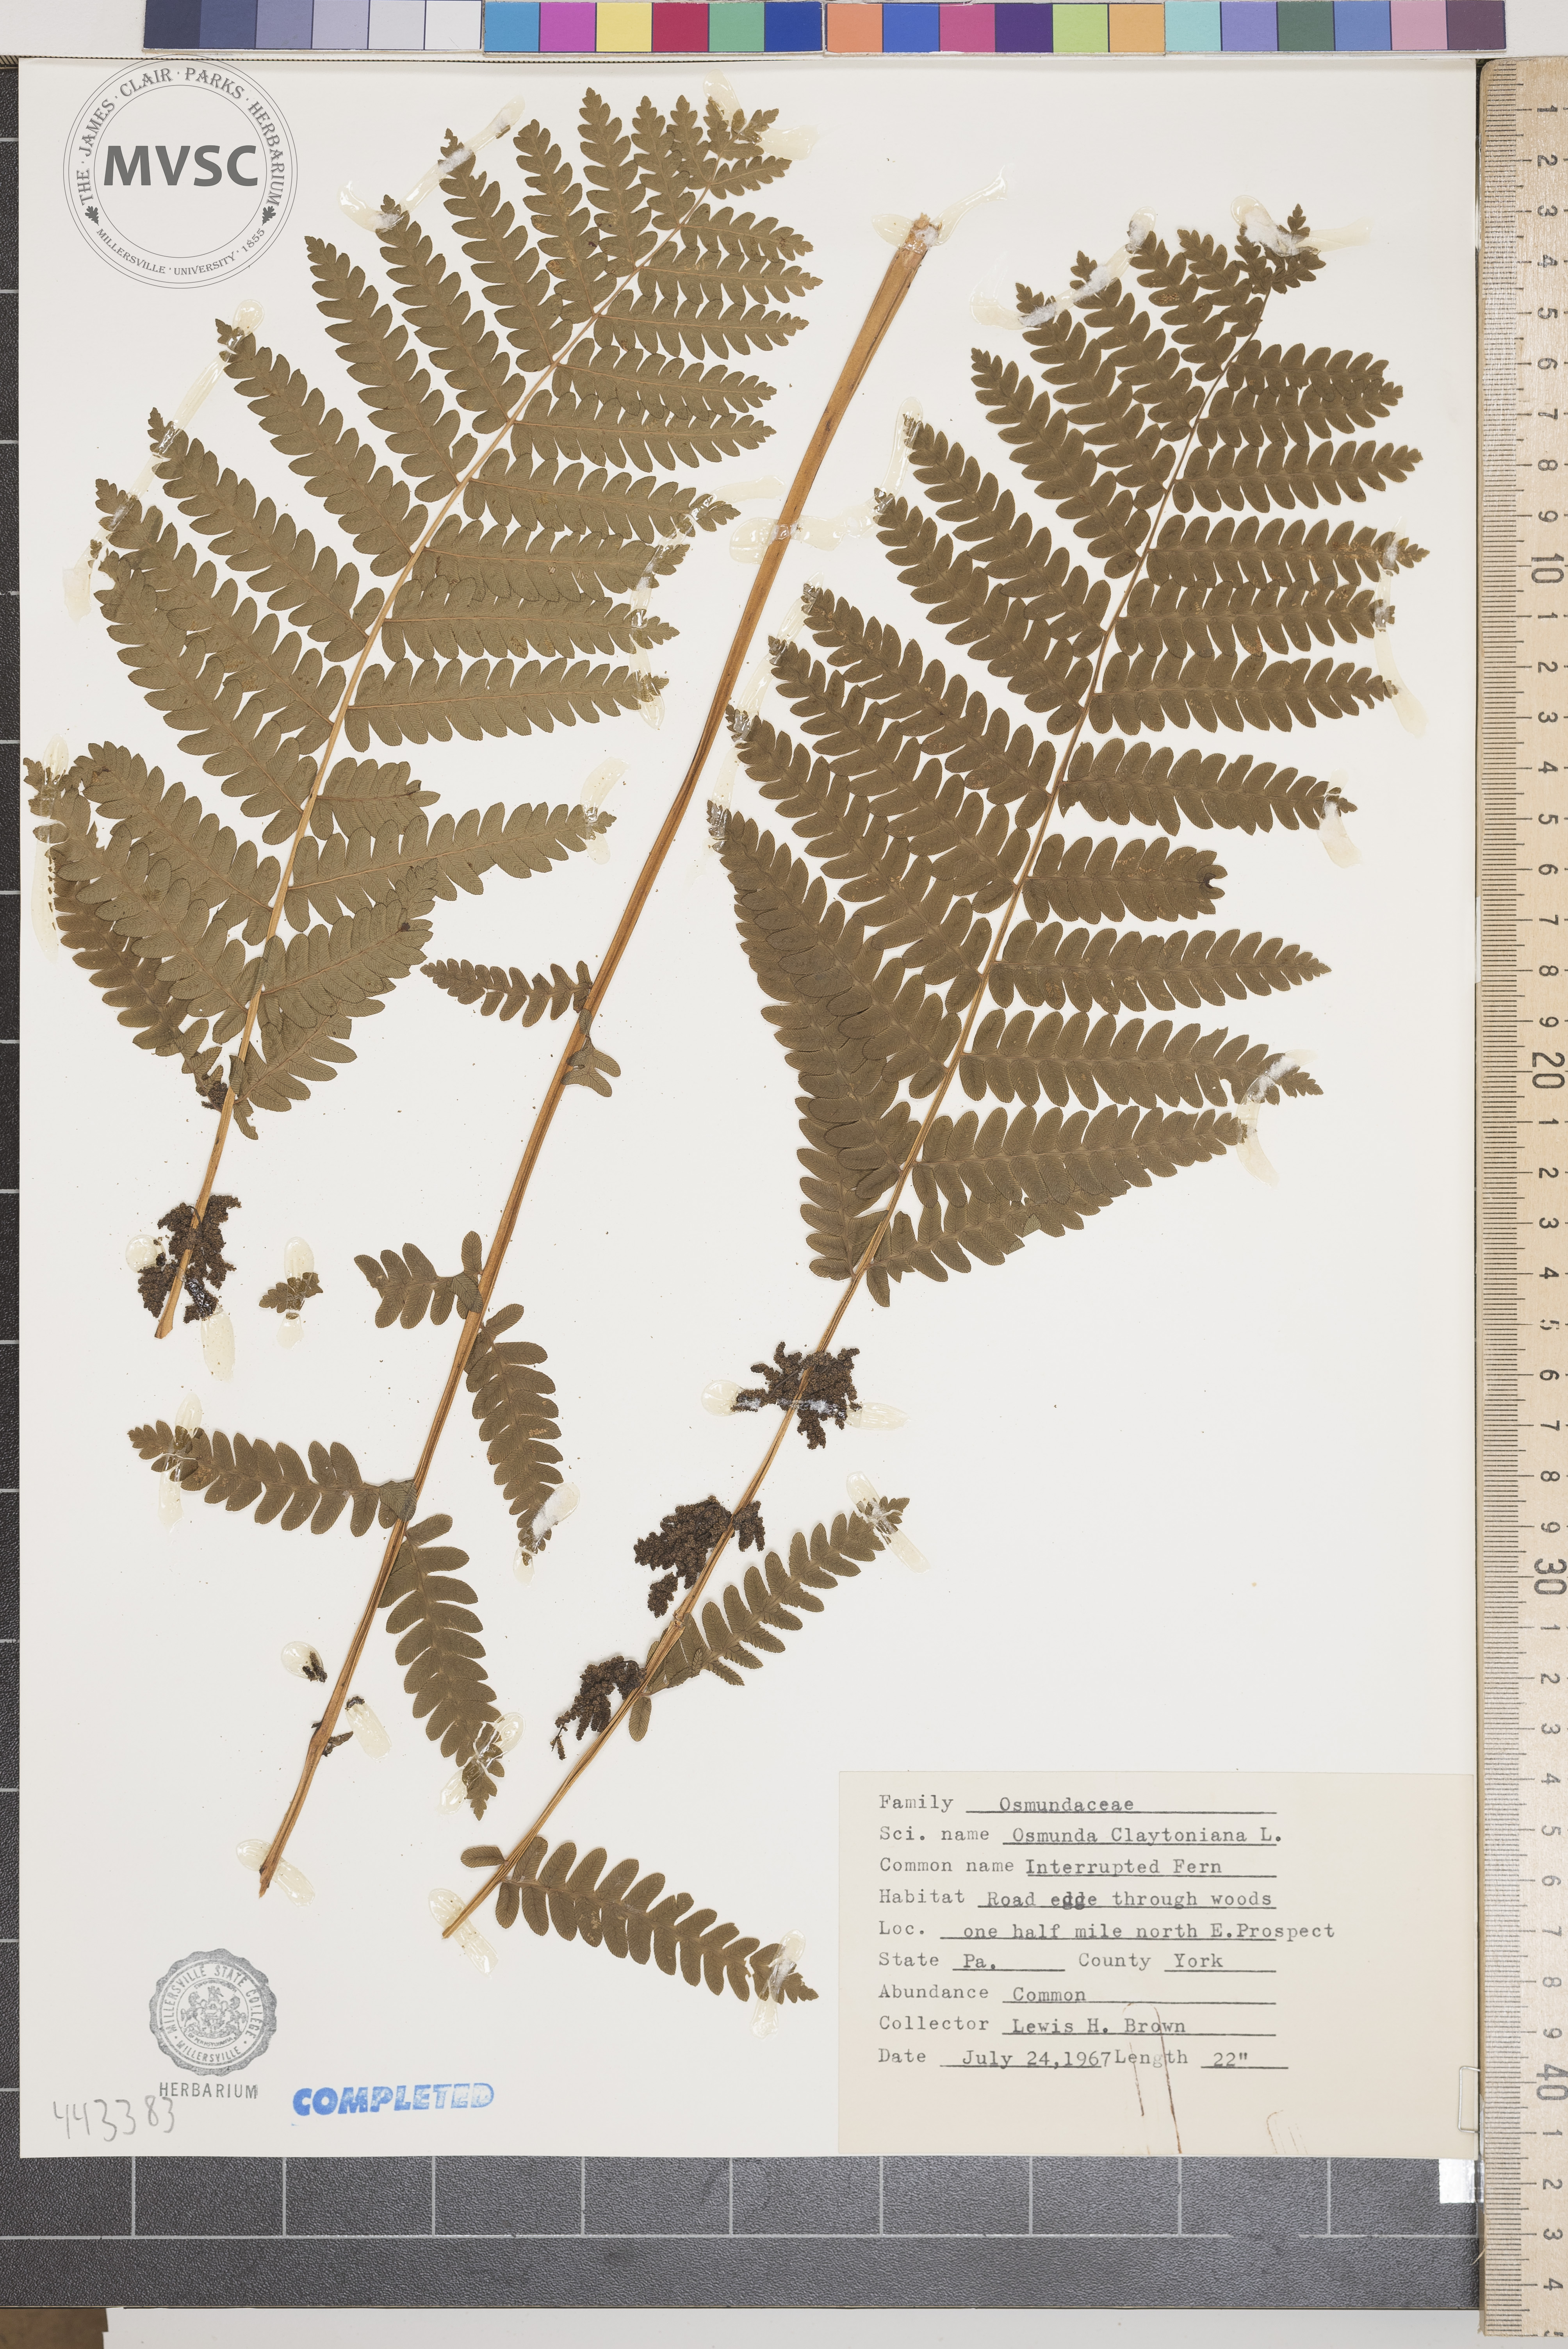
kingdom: Plantae
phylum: Tracheophyta
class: Polypodiopsida
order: Osmundales
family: Osmundaceae
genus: Claytosmunda
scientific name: Claytosmunda claytoniana
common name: Clayton's fern
